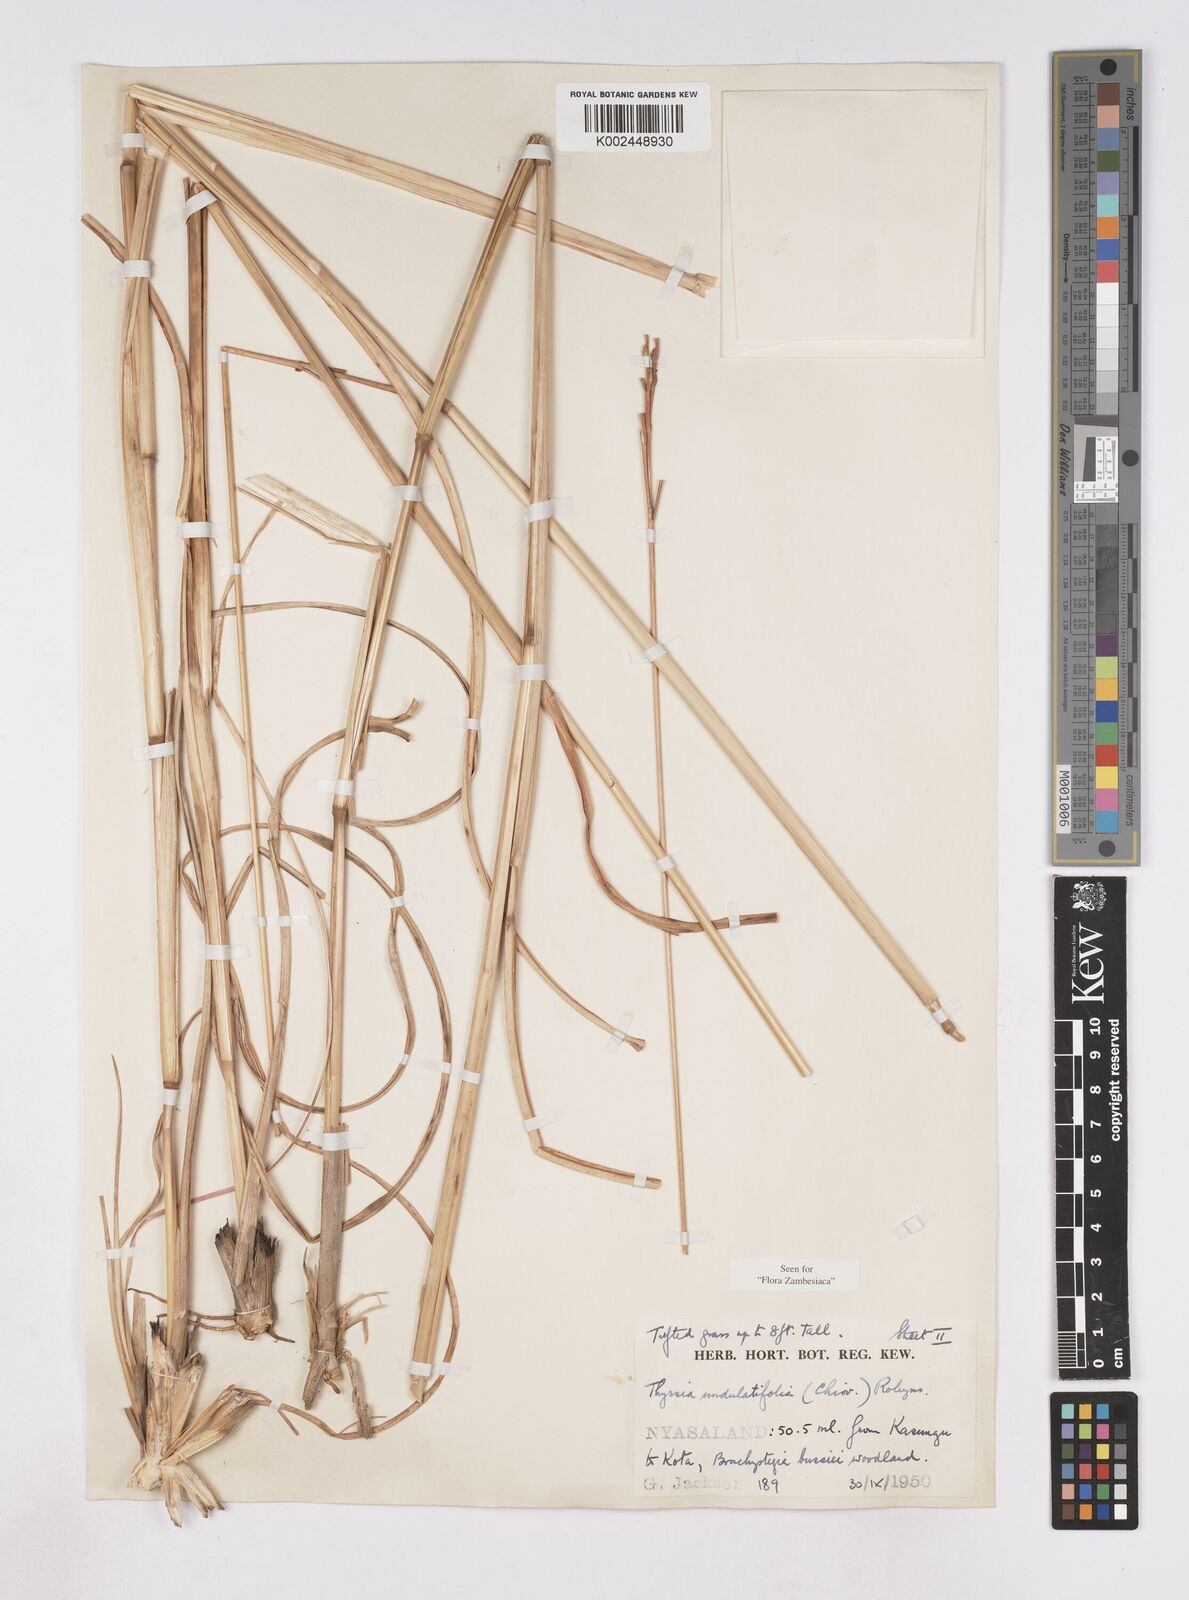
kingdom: Plantae
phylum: Tracheophyta
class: Liliopsida
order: Poales
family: Poaceae
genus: Thyrsia
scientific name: Thyrsia huillensis
